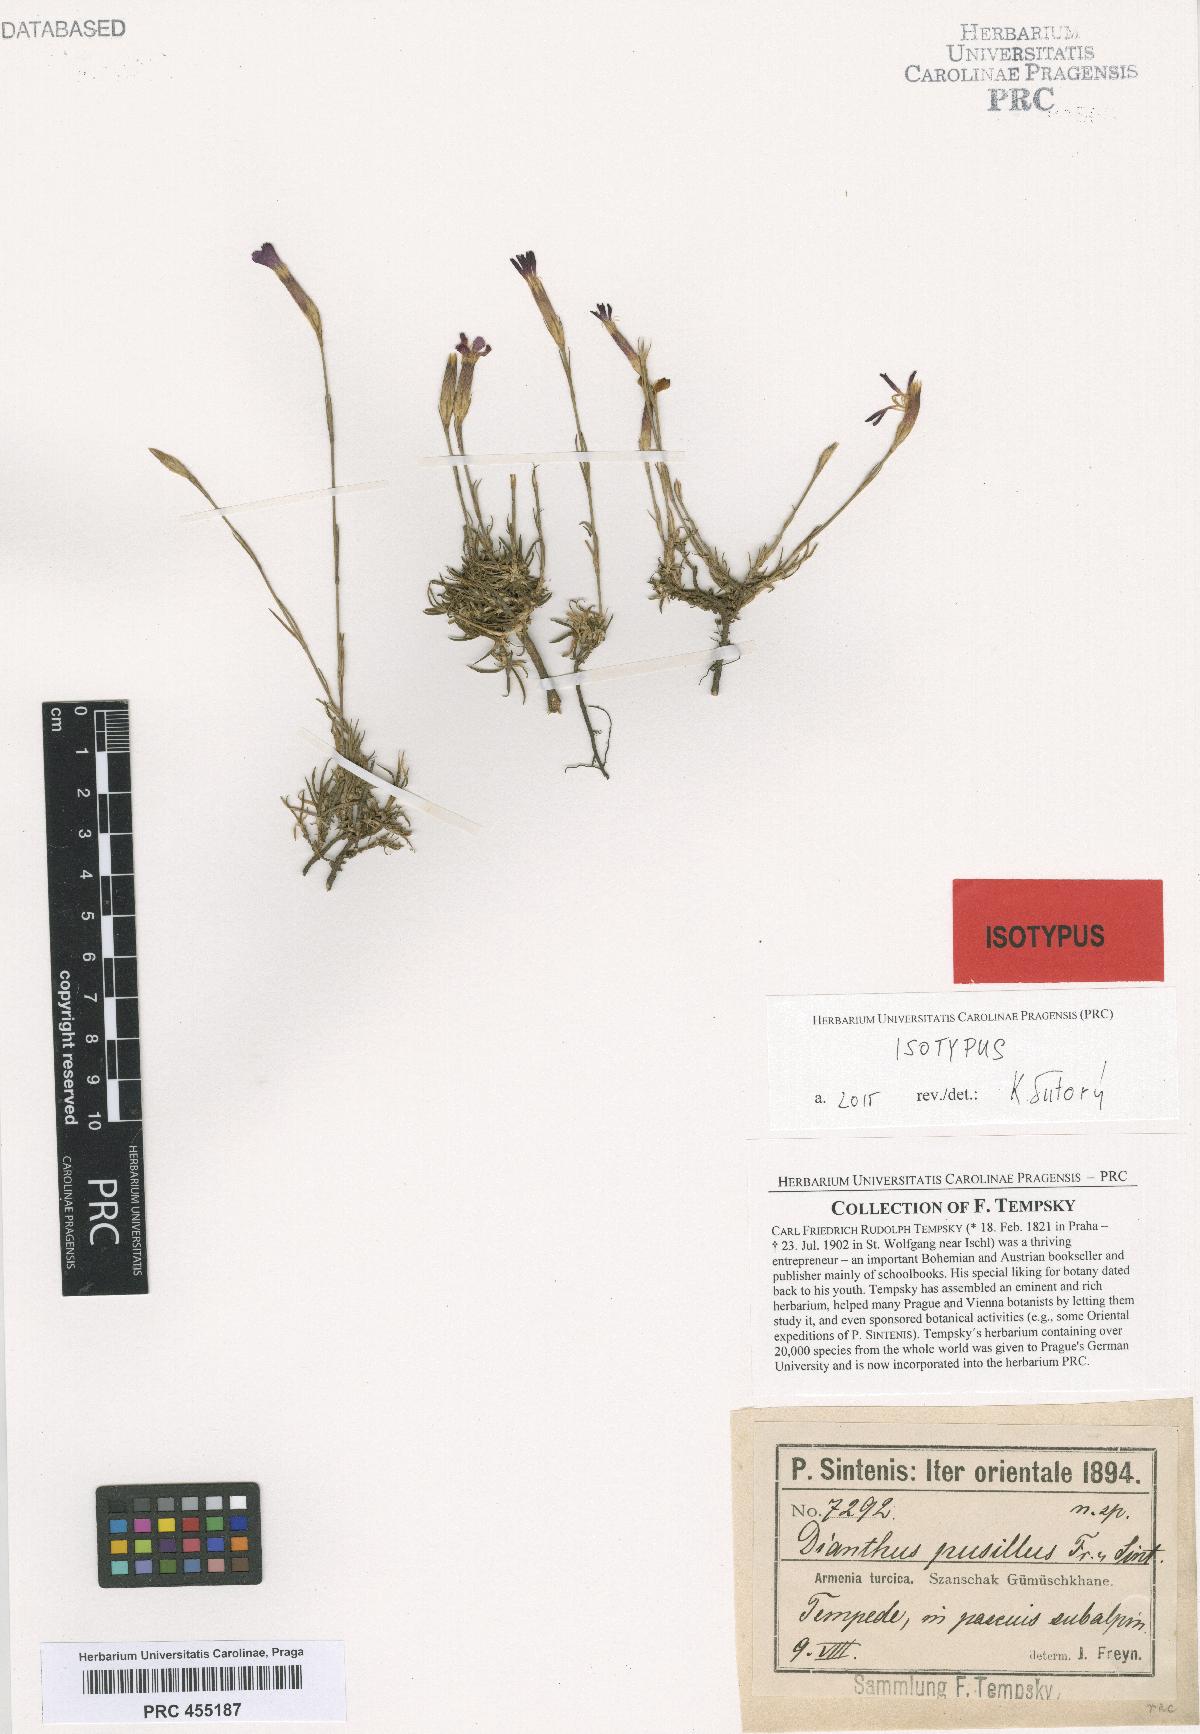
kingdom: Plantae
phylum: Tracheophyta
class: Magnoliopsida
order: Caryophyllales
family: Caryophyllaceae
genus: Dianthus
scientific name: Dianthus seidlitzii
